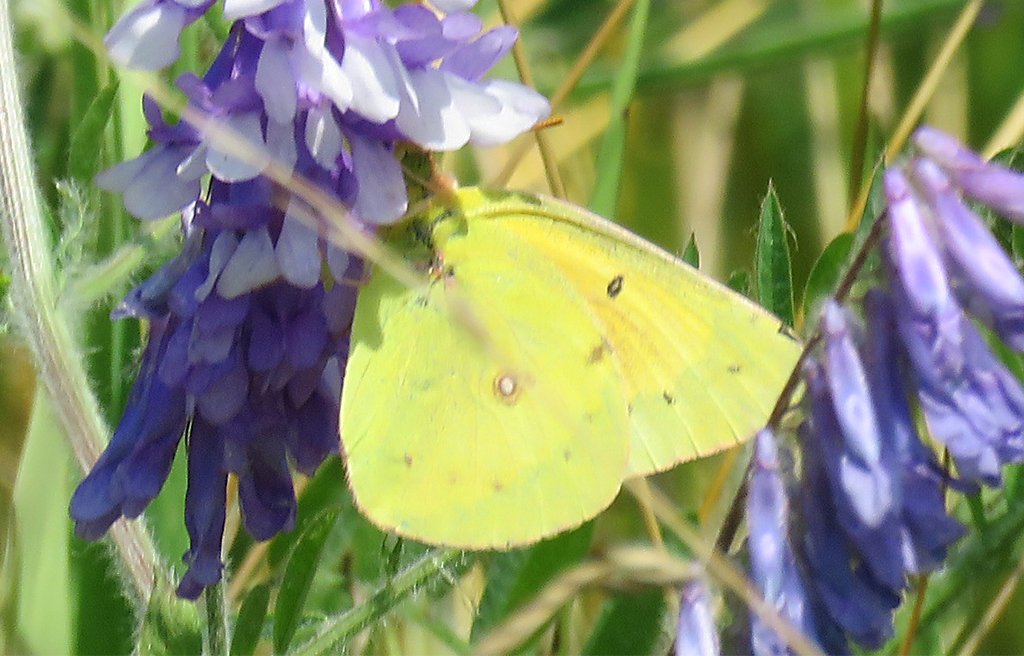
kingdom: Animalia
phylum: Arthropoda
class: Insecta
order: Lepidoptera
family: Pieridae
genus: Colias
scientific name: Colias eurytheme
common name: Orange Sulphur
